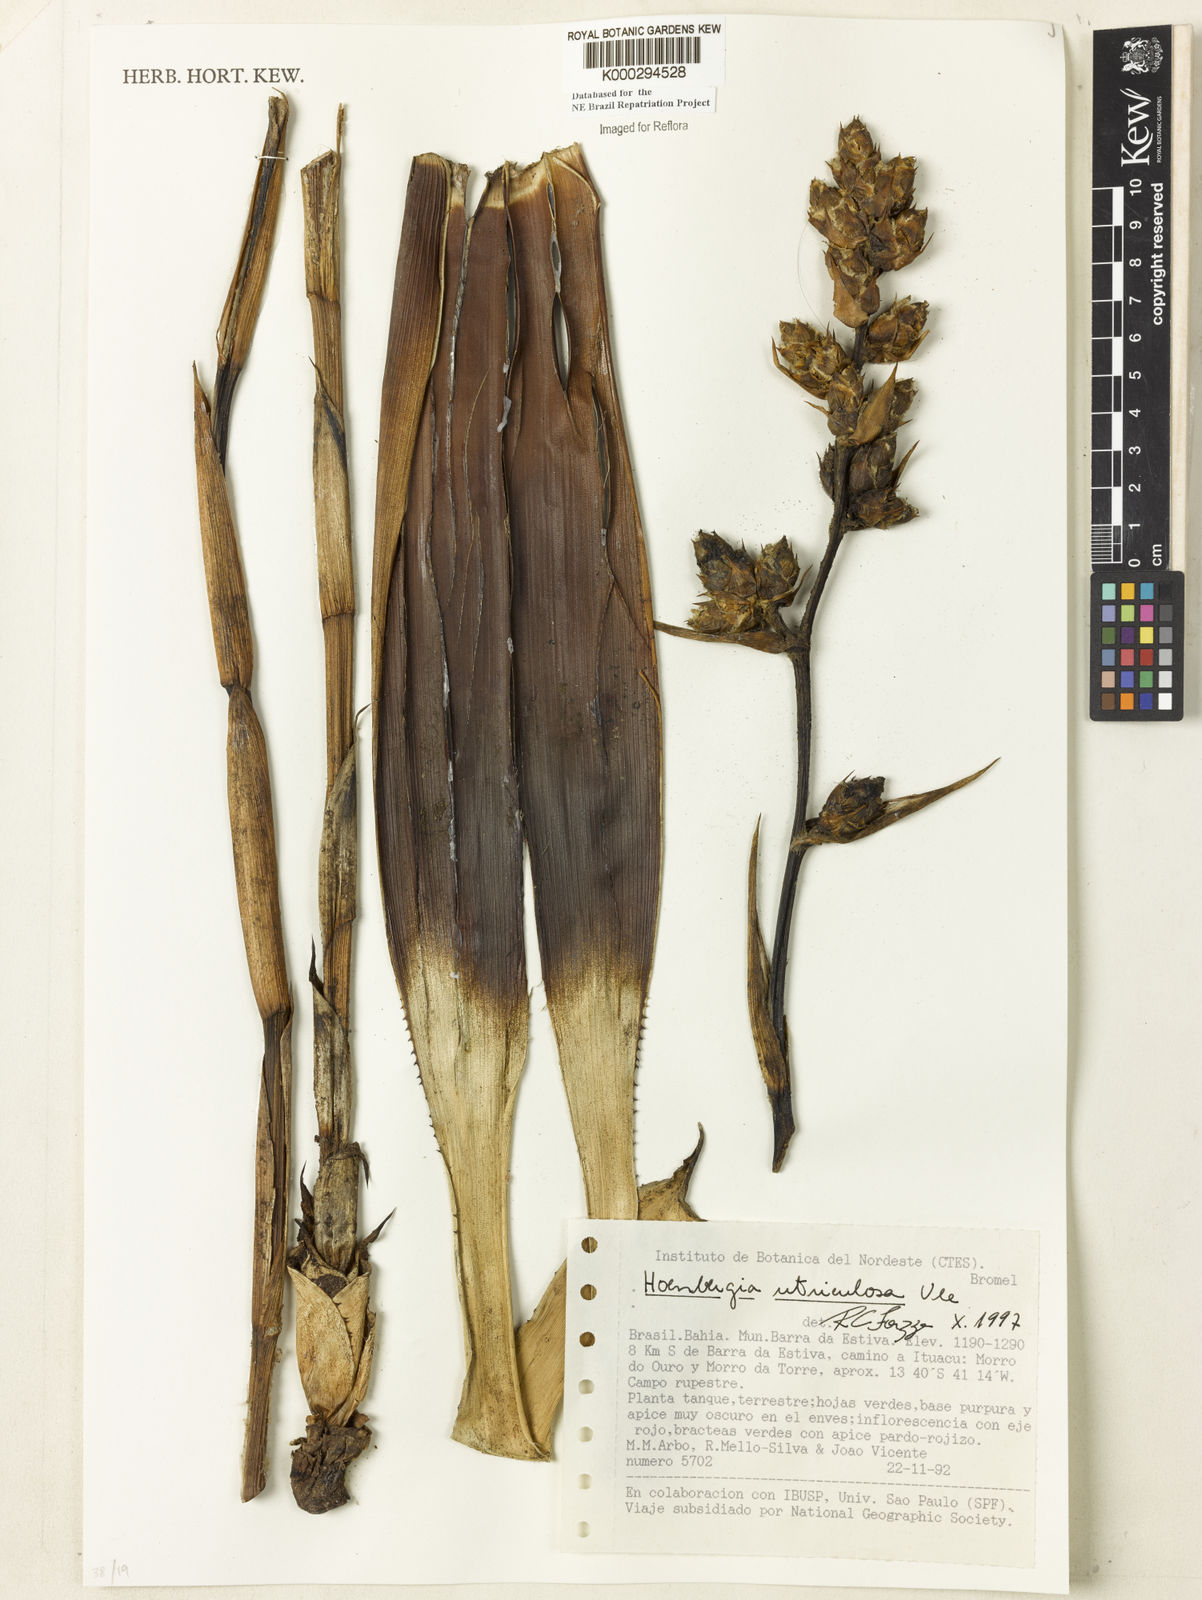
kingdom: Plantae
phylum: Tracheophyta
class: Liliopsida
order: Poales
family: Bromeliaceae
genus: Hohenbergia
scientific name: Hohenbergia utriculosa
